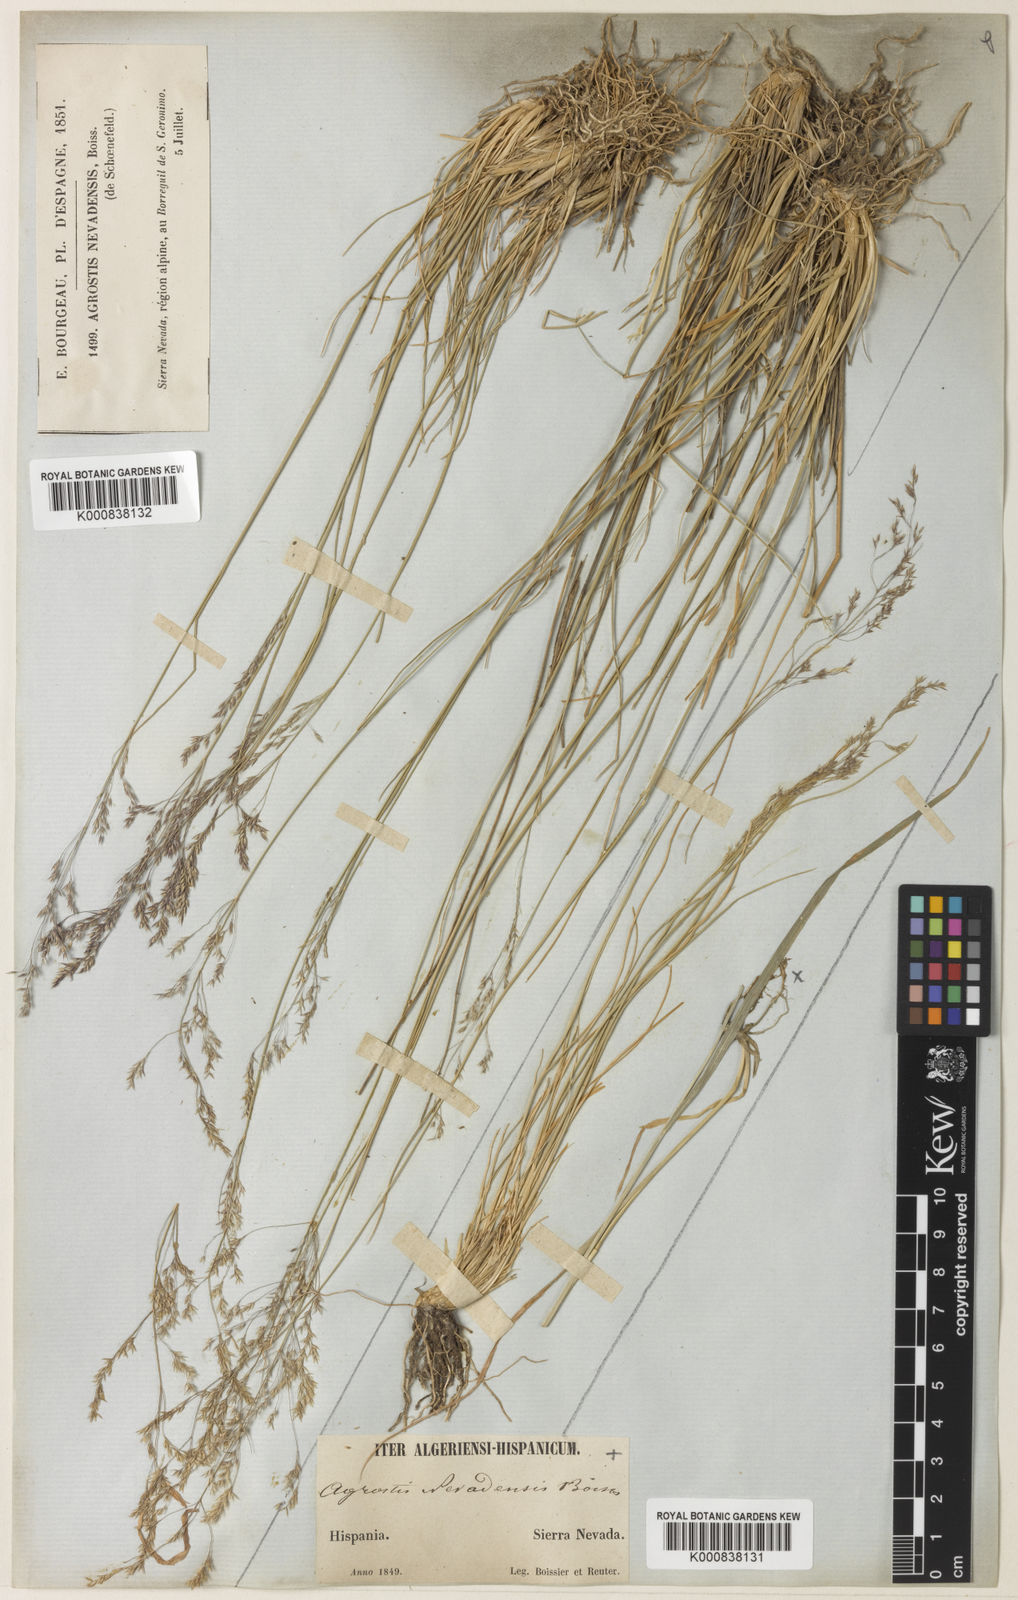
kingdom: Plantae
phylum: Tracheophyta
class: Liliopsida
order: Poales
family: Poaceae
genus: Agrostis
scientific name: Agrostis nevadensis
